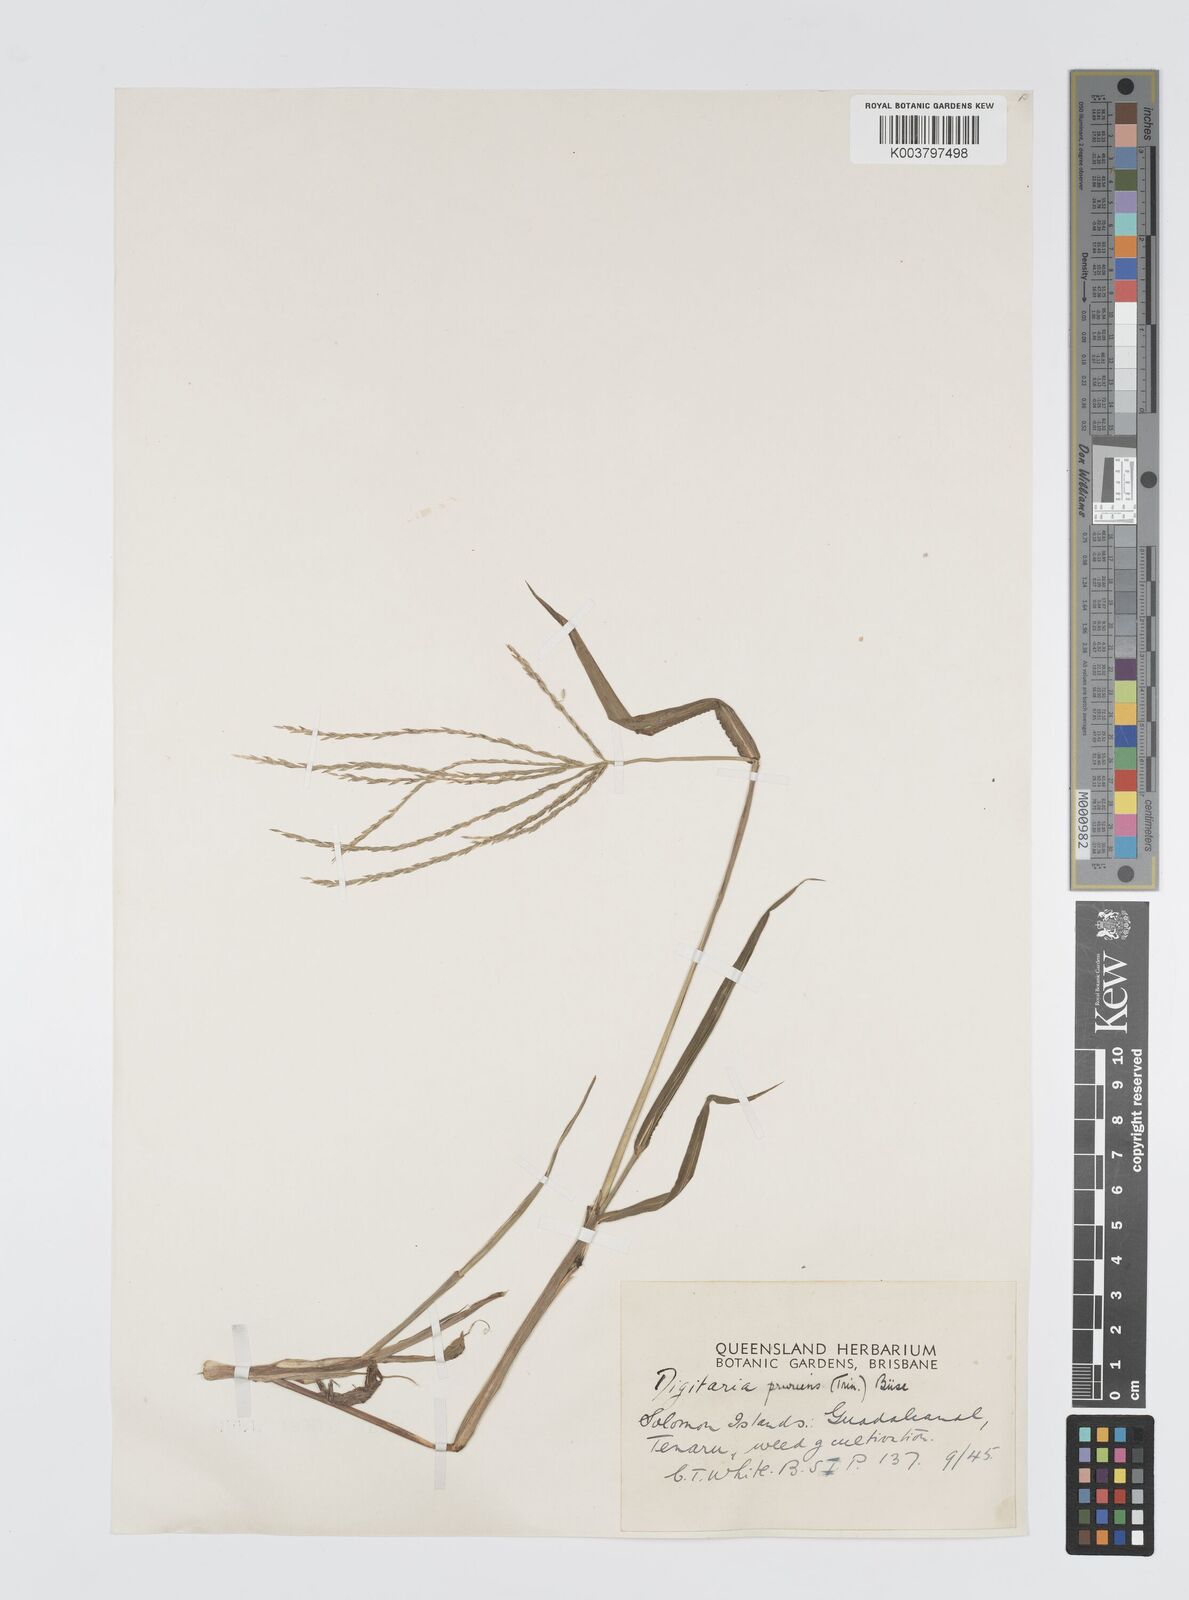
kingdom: Plantae
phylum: Tracheophyta
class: Liliopsida
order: Poales
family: Poaceae
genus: Digitaria
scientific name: Digitaria setigera
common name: East indian crabgrass
